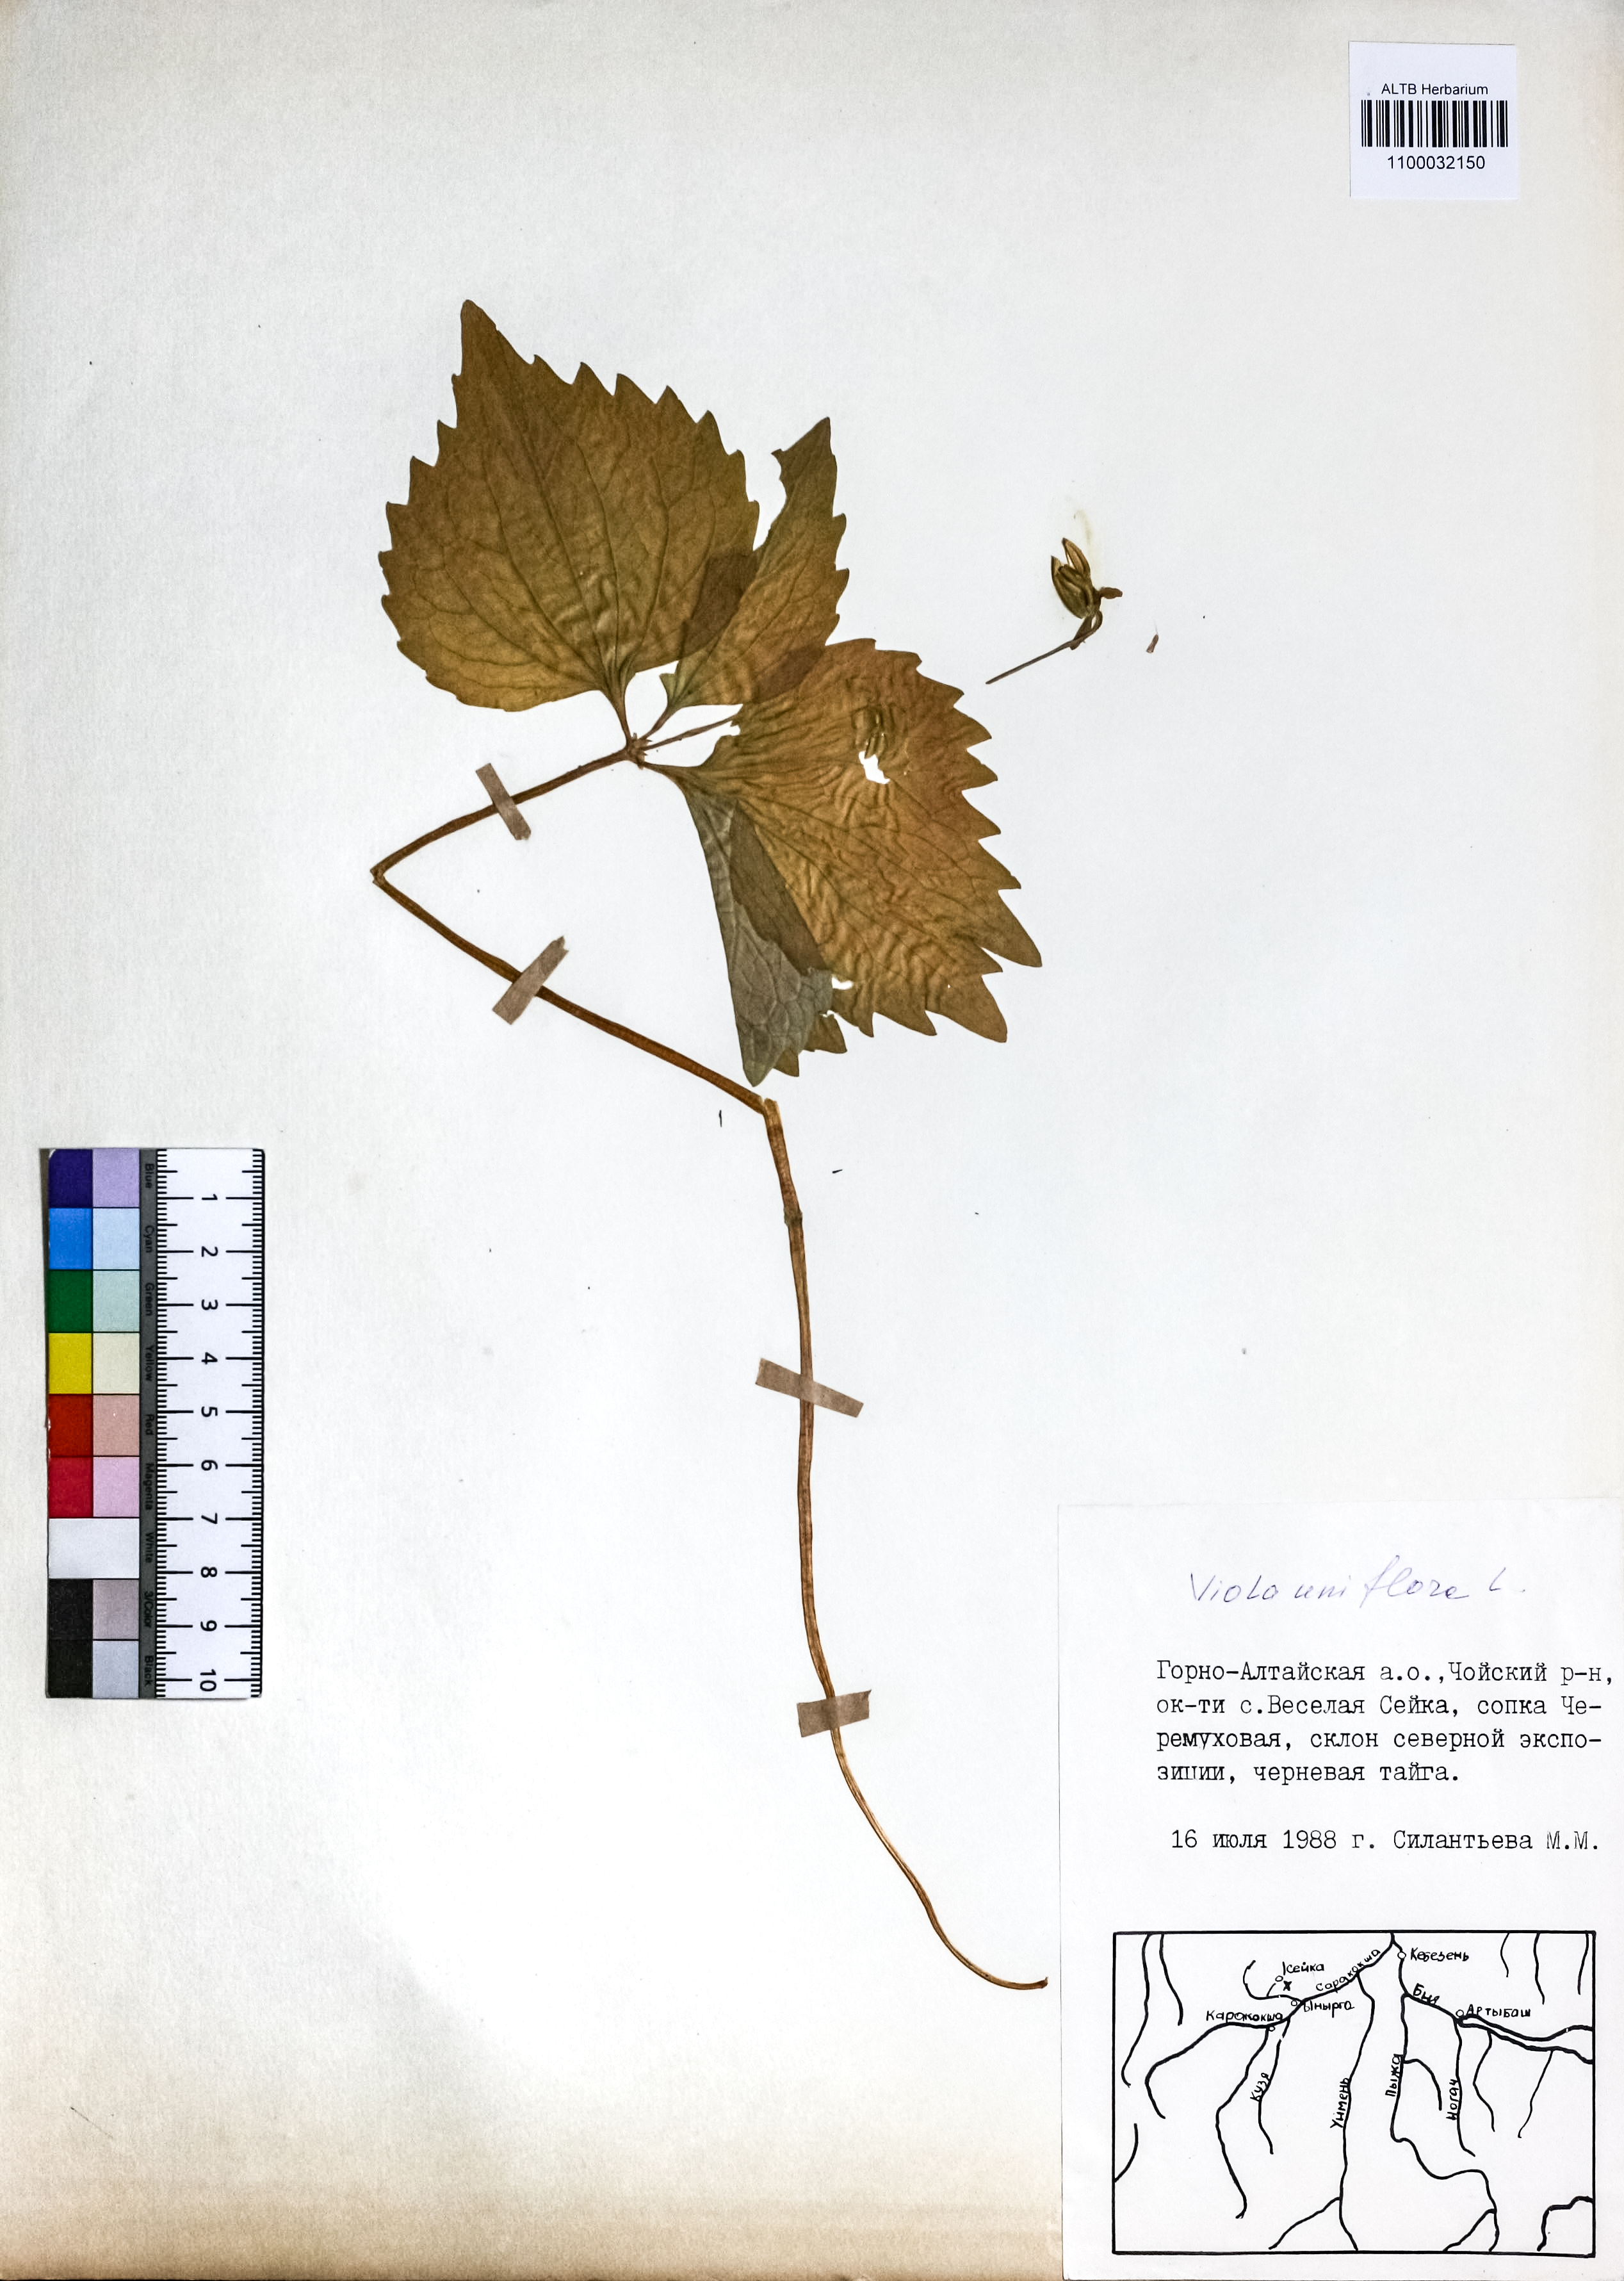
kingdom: Plantae
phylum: Tracheophyta
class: Magnoliopsida
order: Malpighiales
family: Violaceae
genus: Viola
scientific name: Viola uniflora
